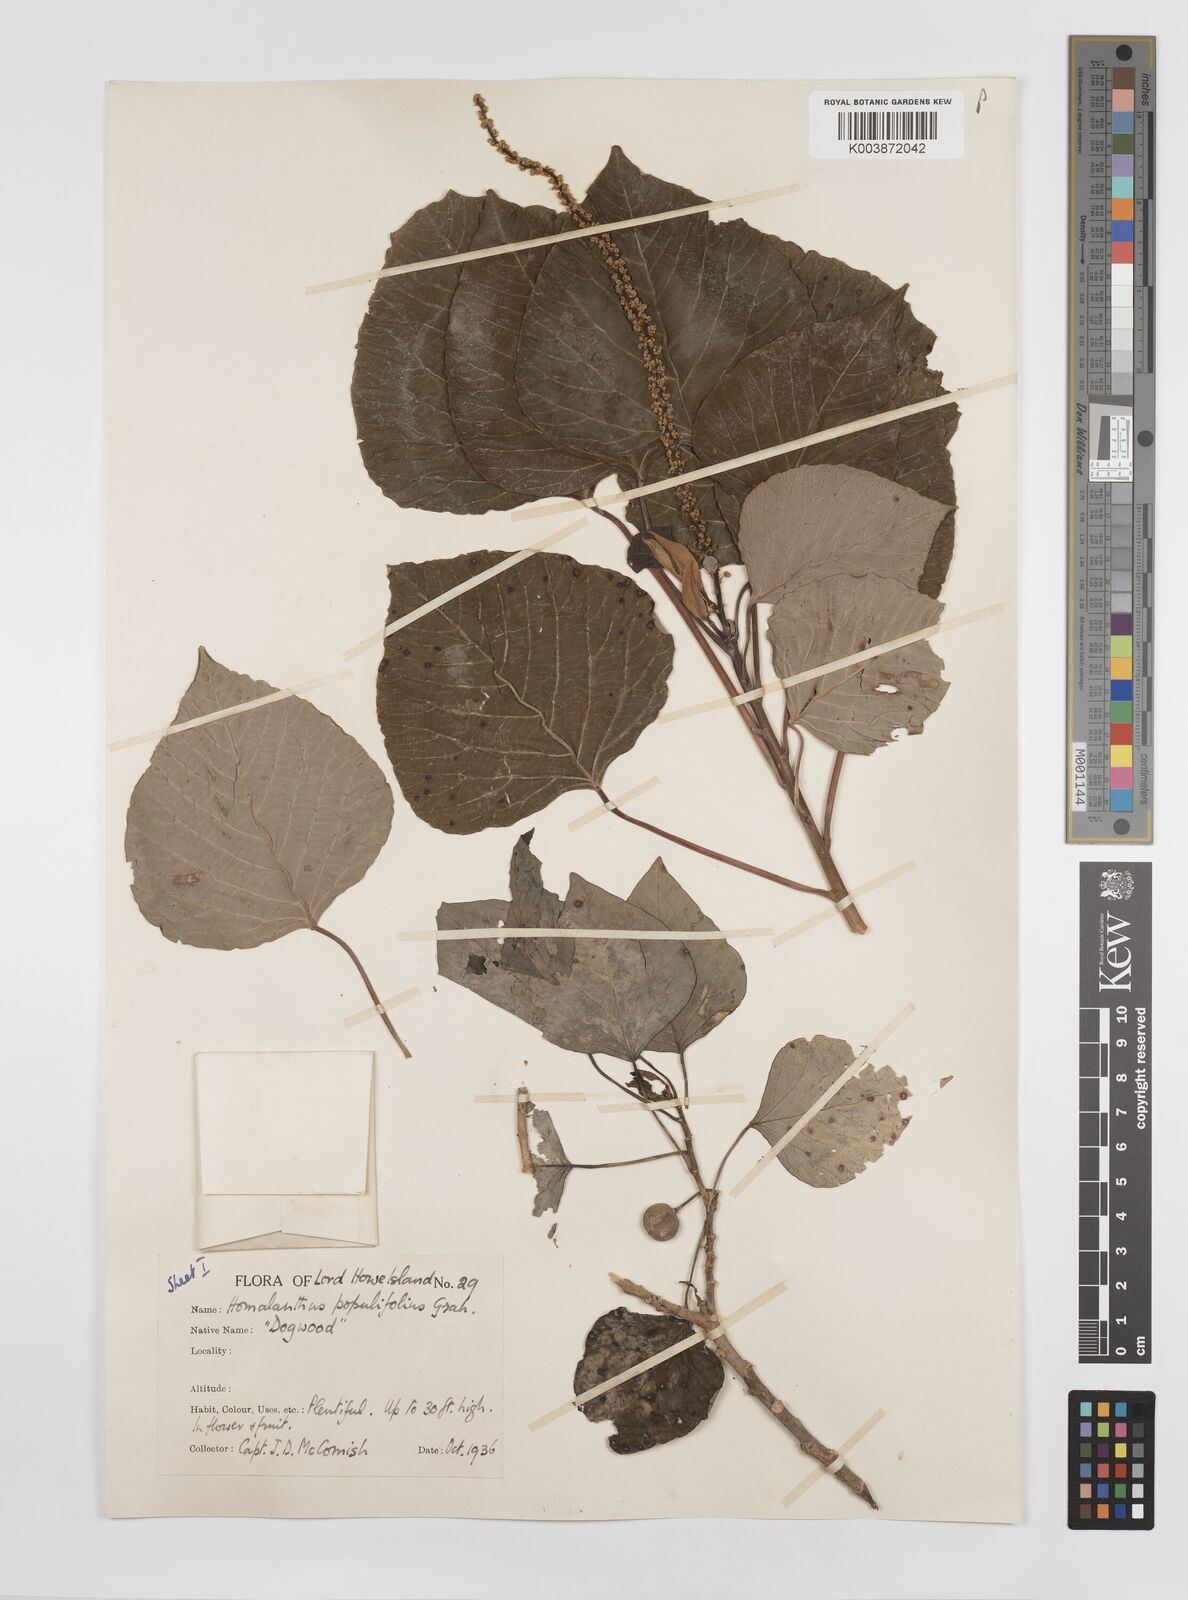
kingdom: Plantae
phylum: Tracheophyta
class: Magnoliopsida
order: Malpighiales
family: Euphorbiaceae
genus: Homalanthus
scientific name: Homalanthus populifolius
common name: Queensland poplar
